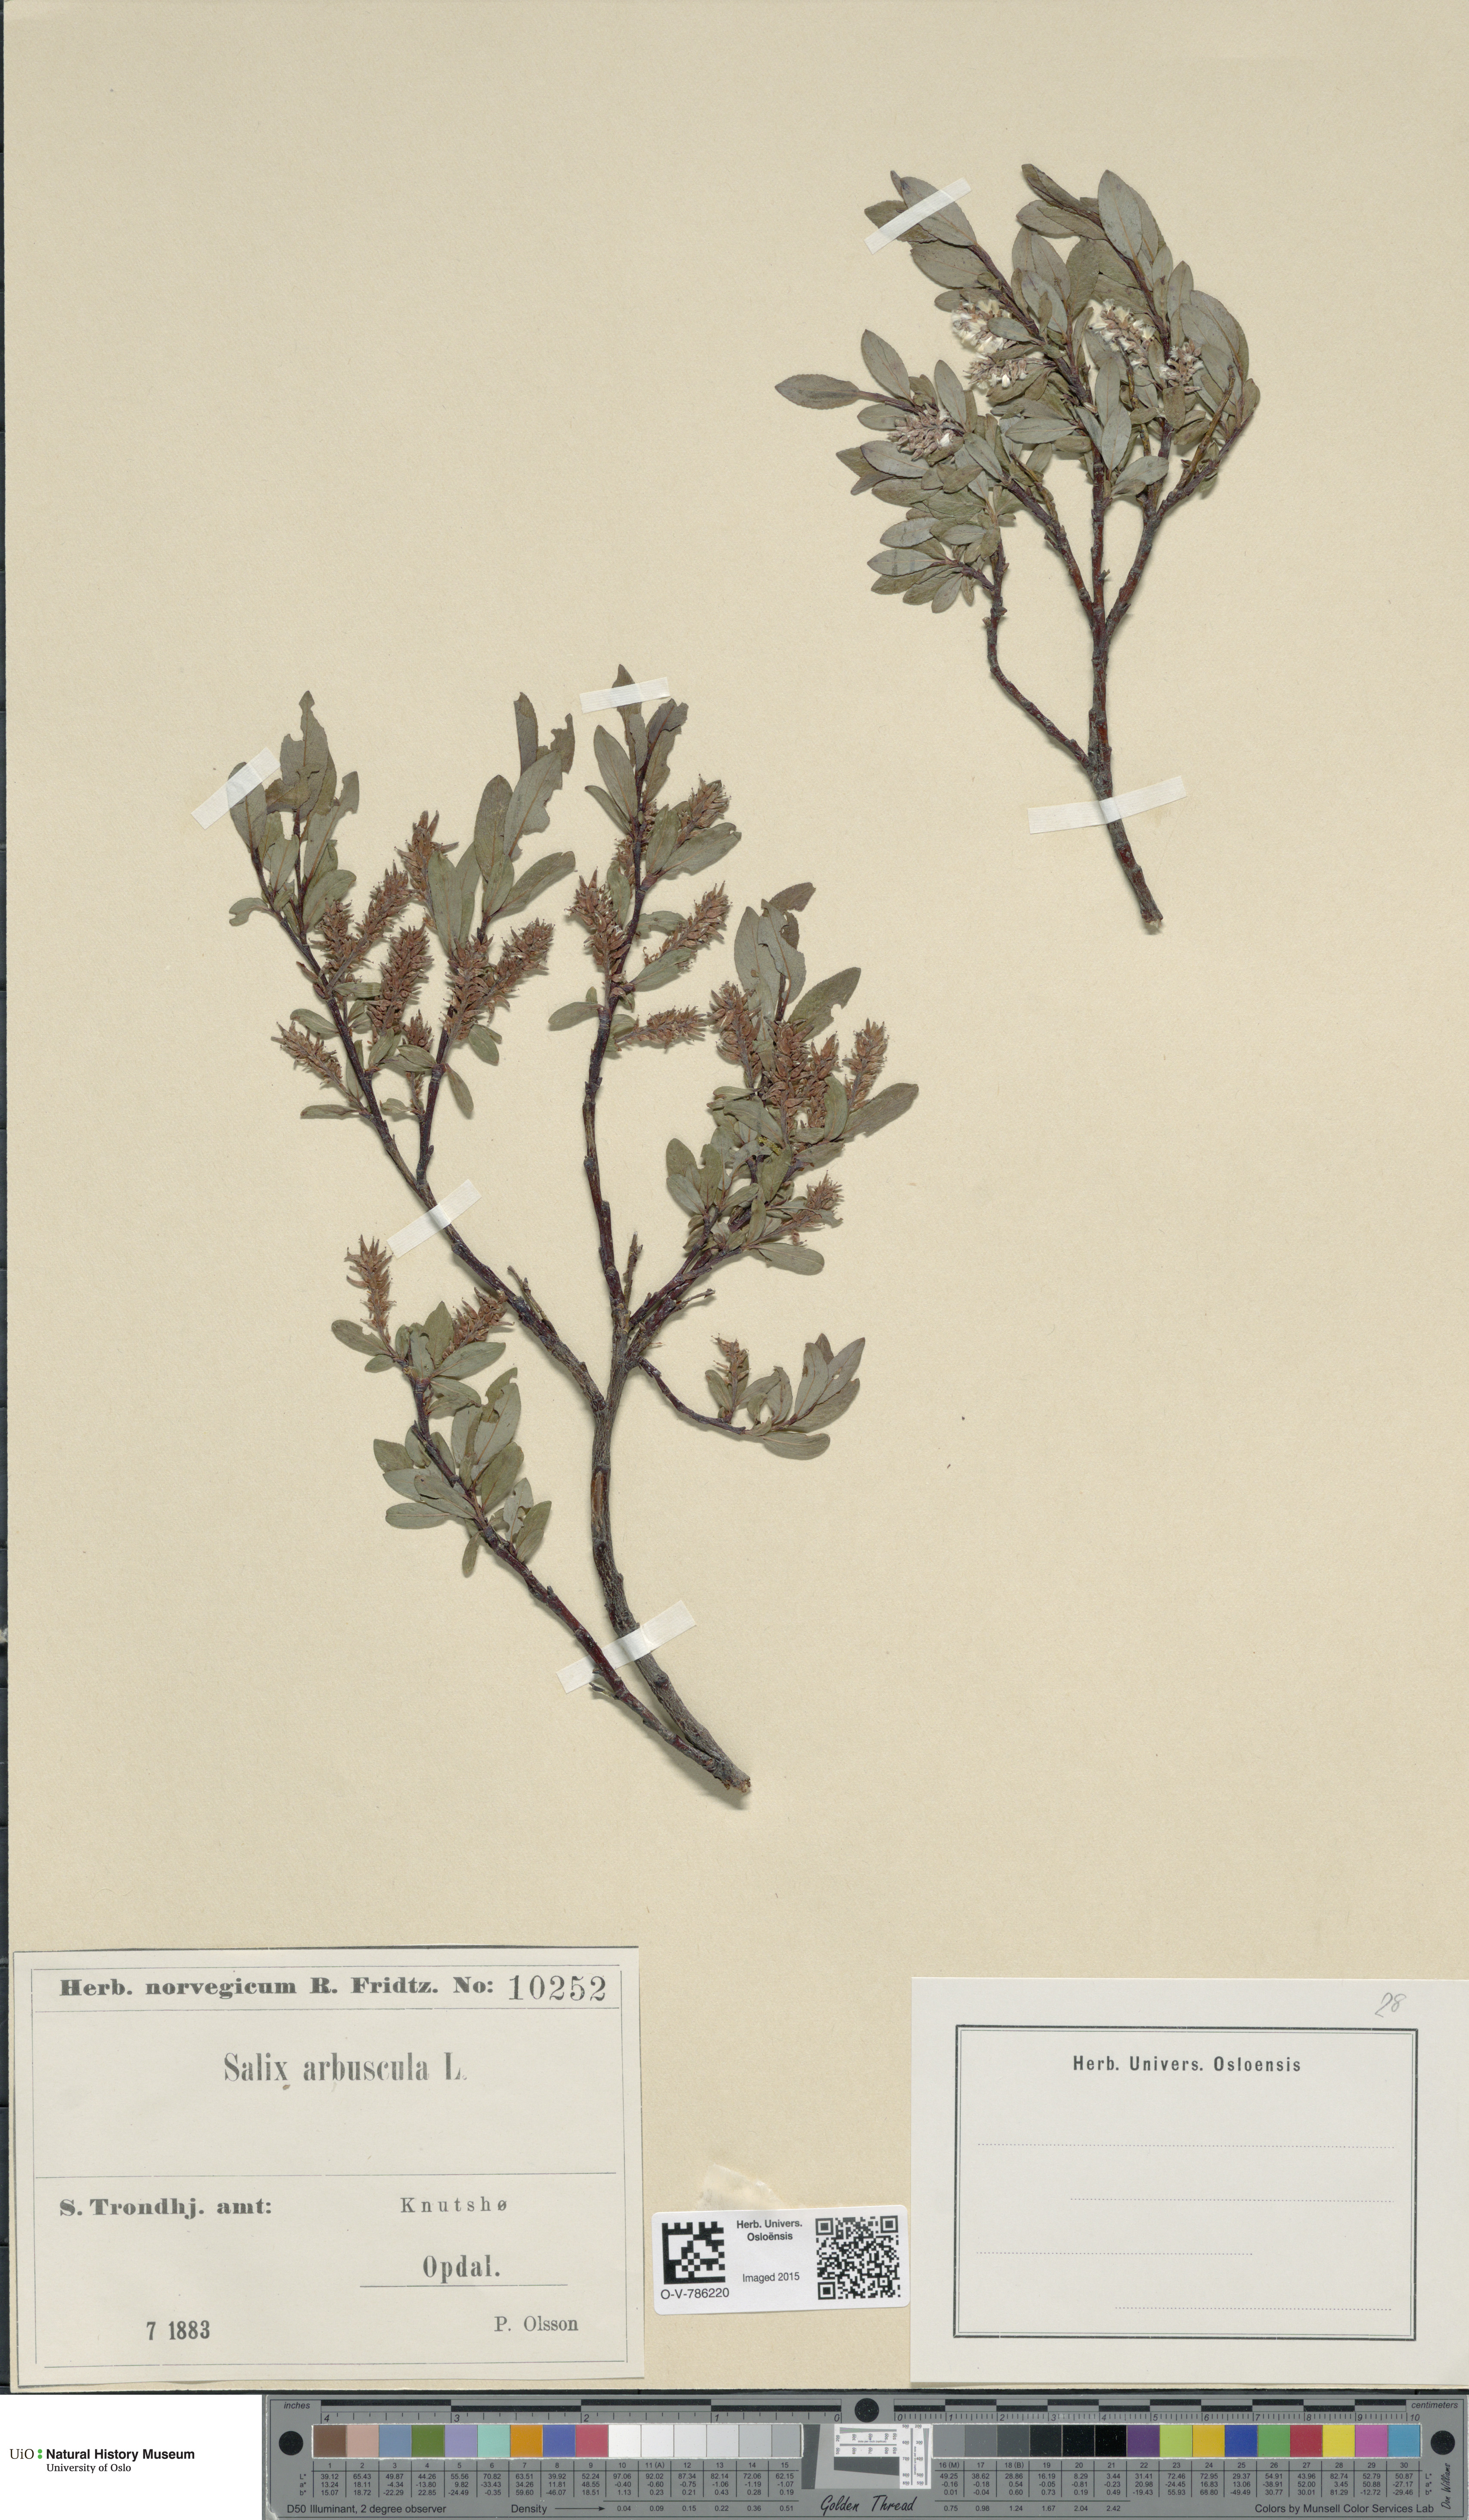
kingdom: Plantae
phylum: Tracheophyta
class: Magnoliopsida
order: Malpighiales
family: Salicaceae
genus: Salix
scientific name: Salix arbuscula
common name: Mountain willow
